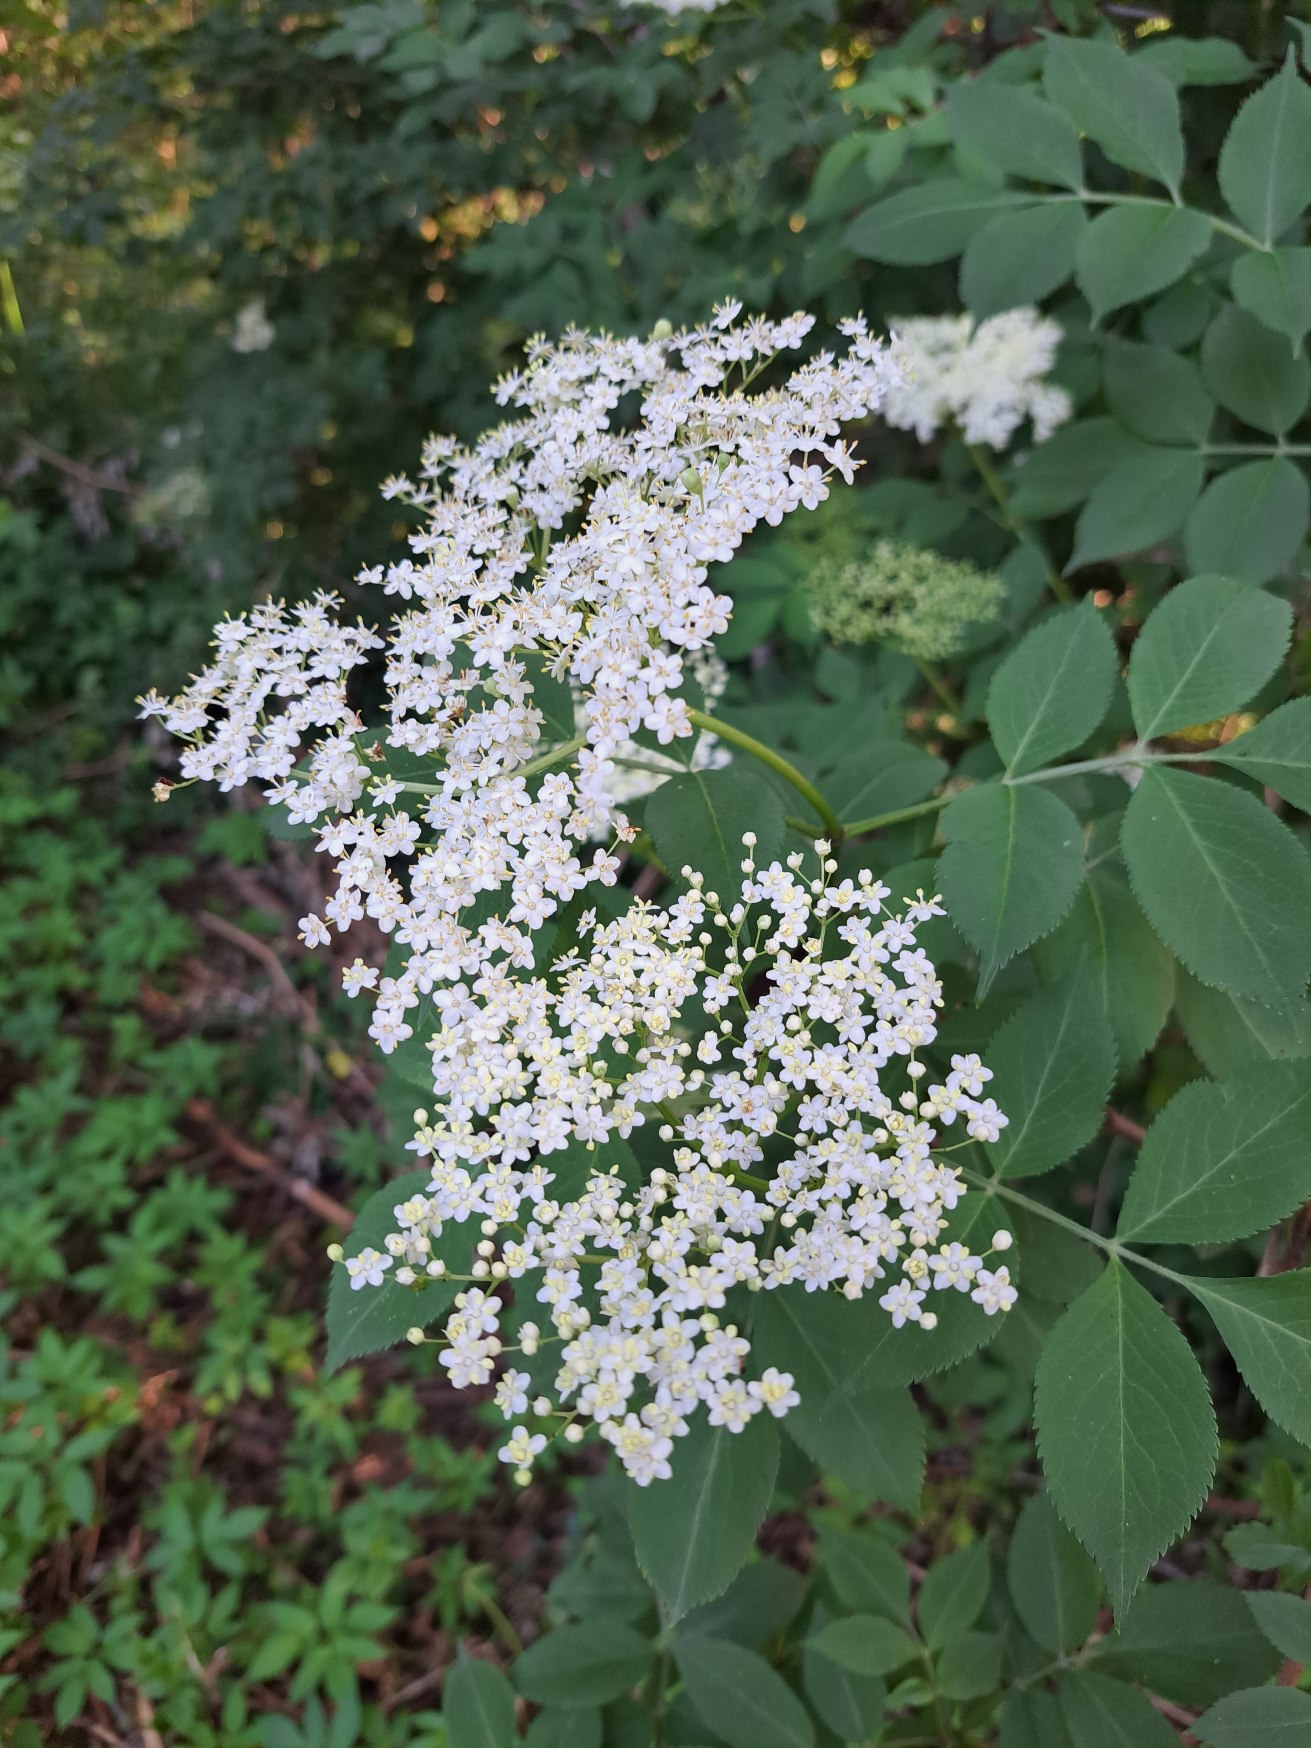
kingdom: Plantae
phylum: Tracheophyta
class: Magnoliopsida
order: Dipsacales
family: Viburnaceae
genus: Sambucus
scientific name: Sambucus nigra
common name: Almindelig hyld
